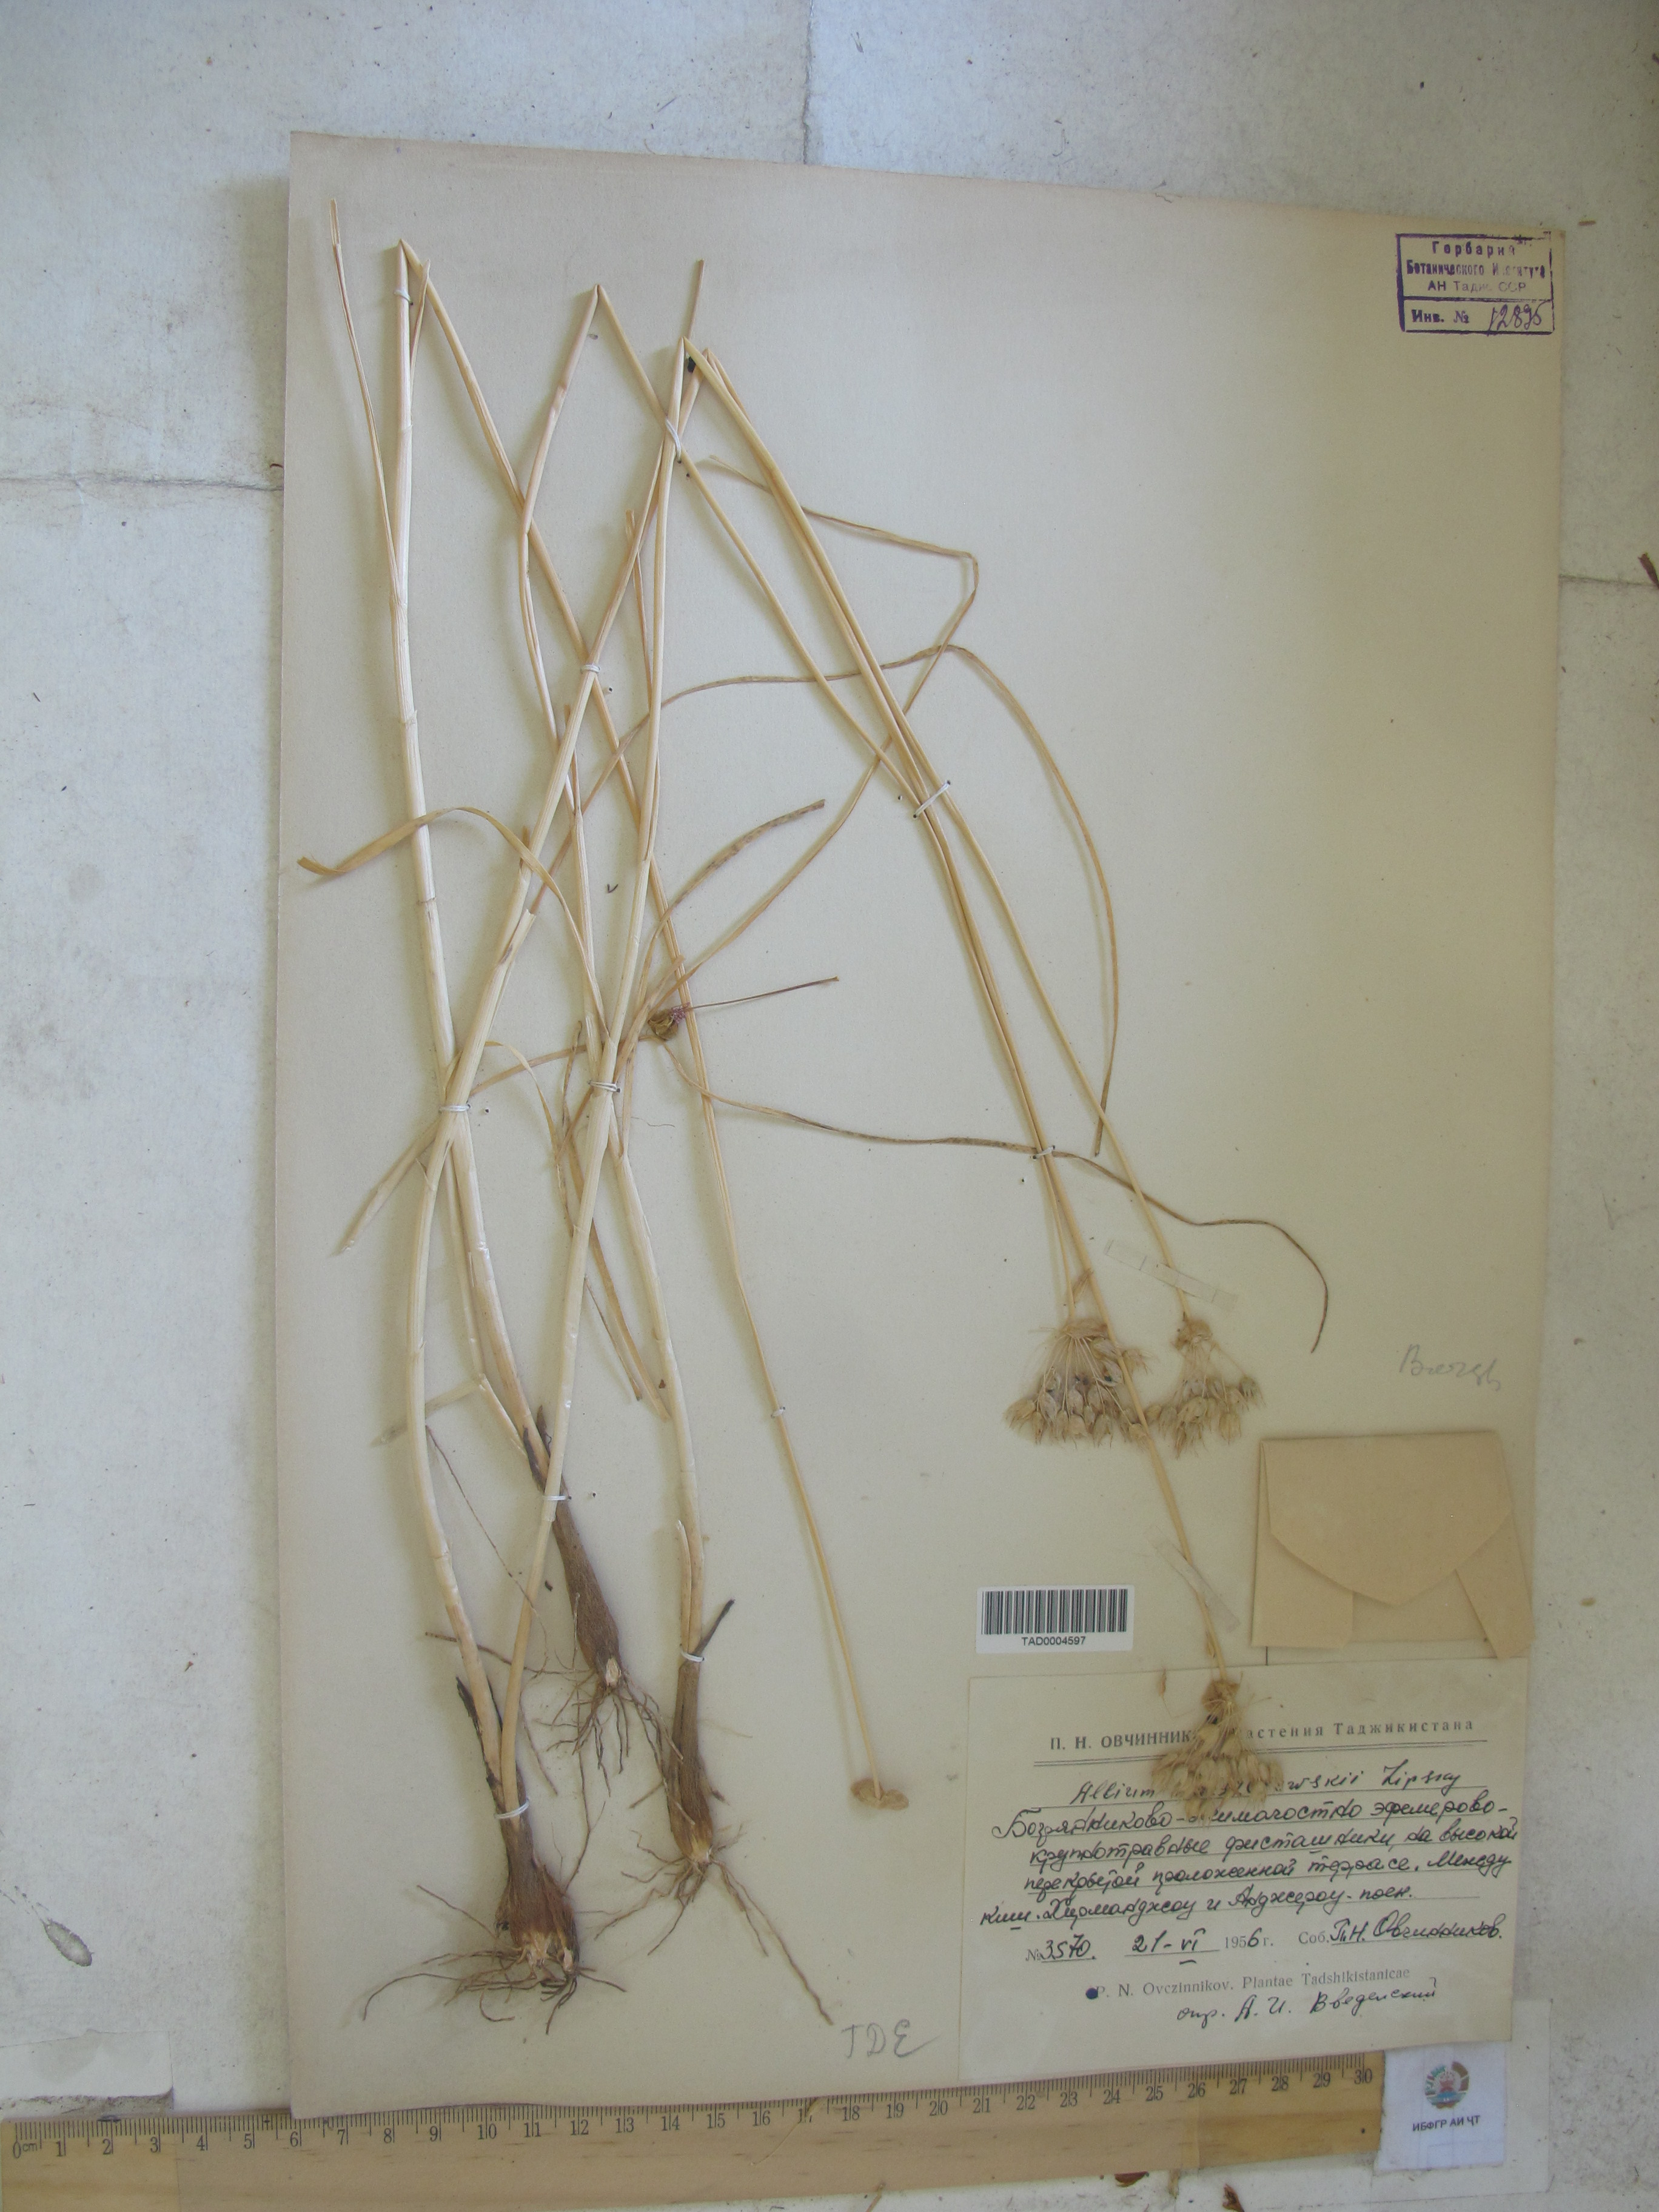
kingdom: Plantae
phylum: Tracheophyta
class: Liliopsida
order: Asparagales
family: Amaryllidaceae
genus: Allium
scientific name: Allium barsczewskii
